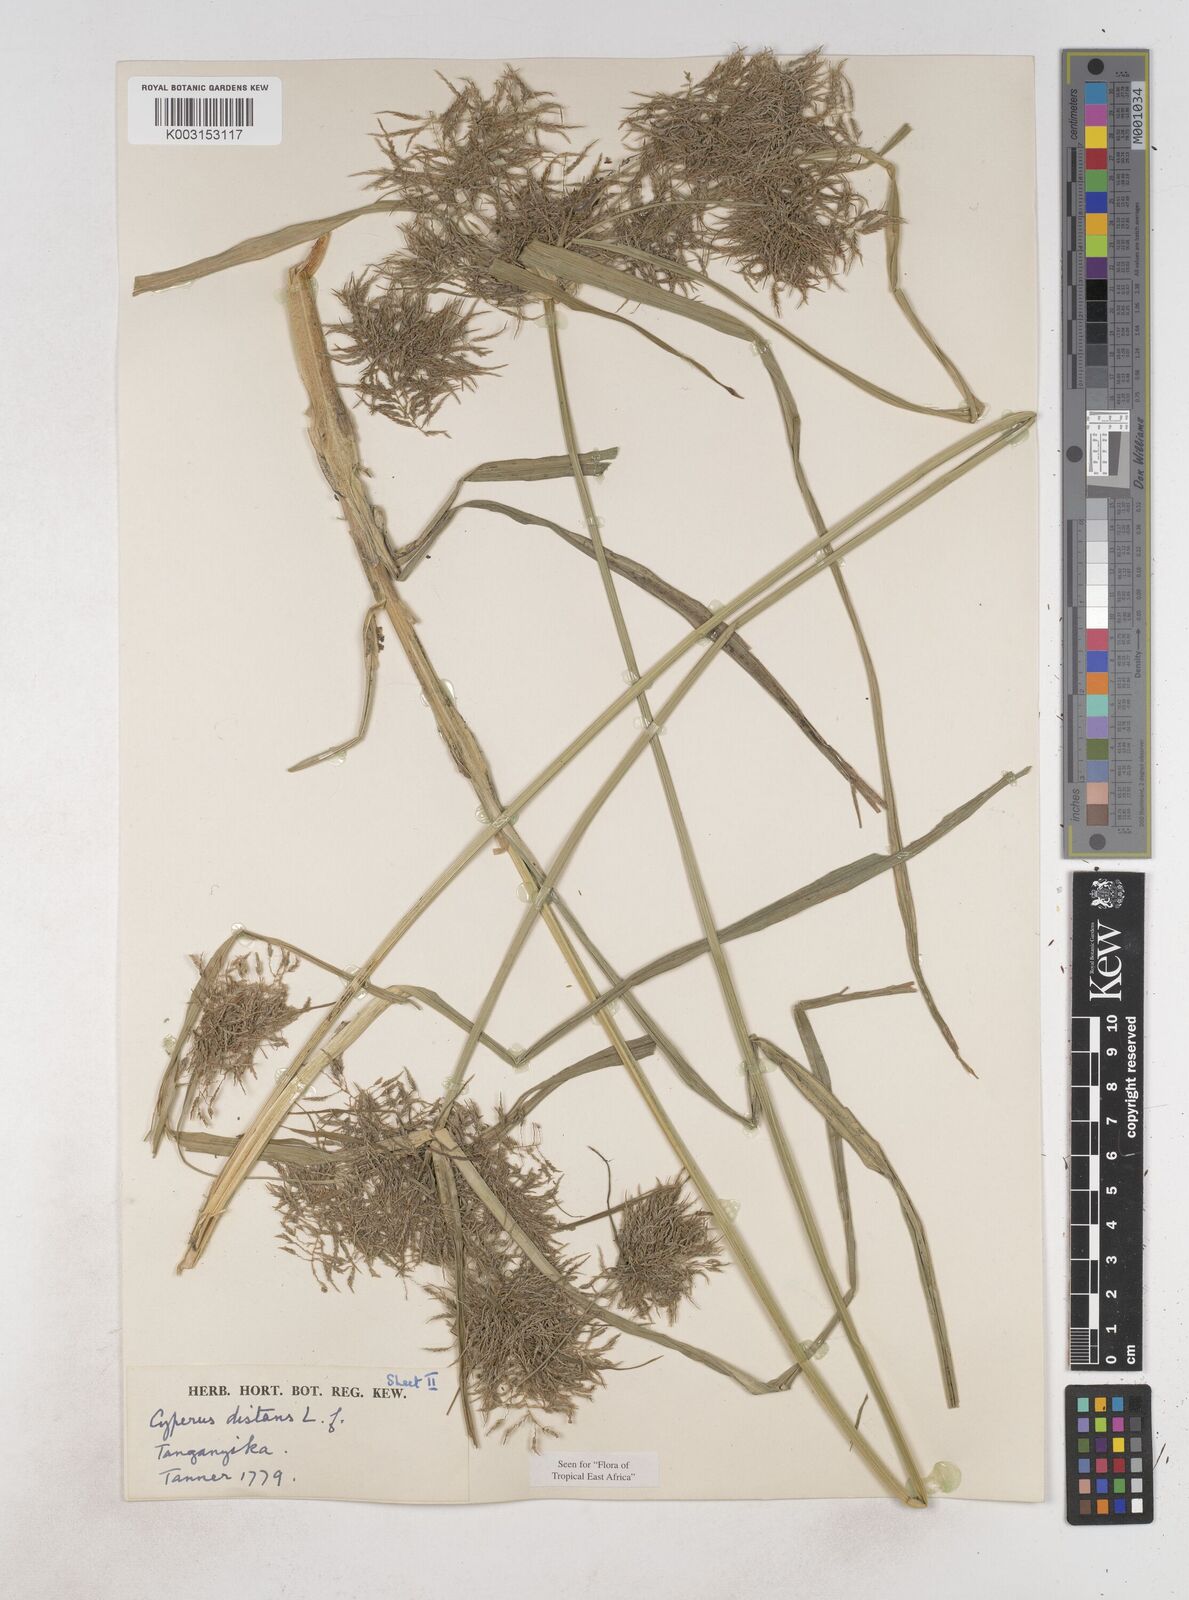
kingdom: Plantae
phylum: Tracheophyta
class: Liliopsida
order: Poales
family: Cyperaceae
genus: Cyperus
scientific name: Cyperus distans
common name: Slender cyperus
